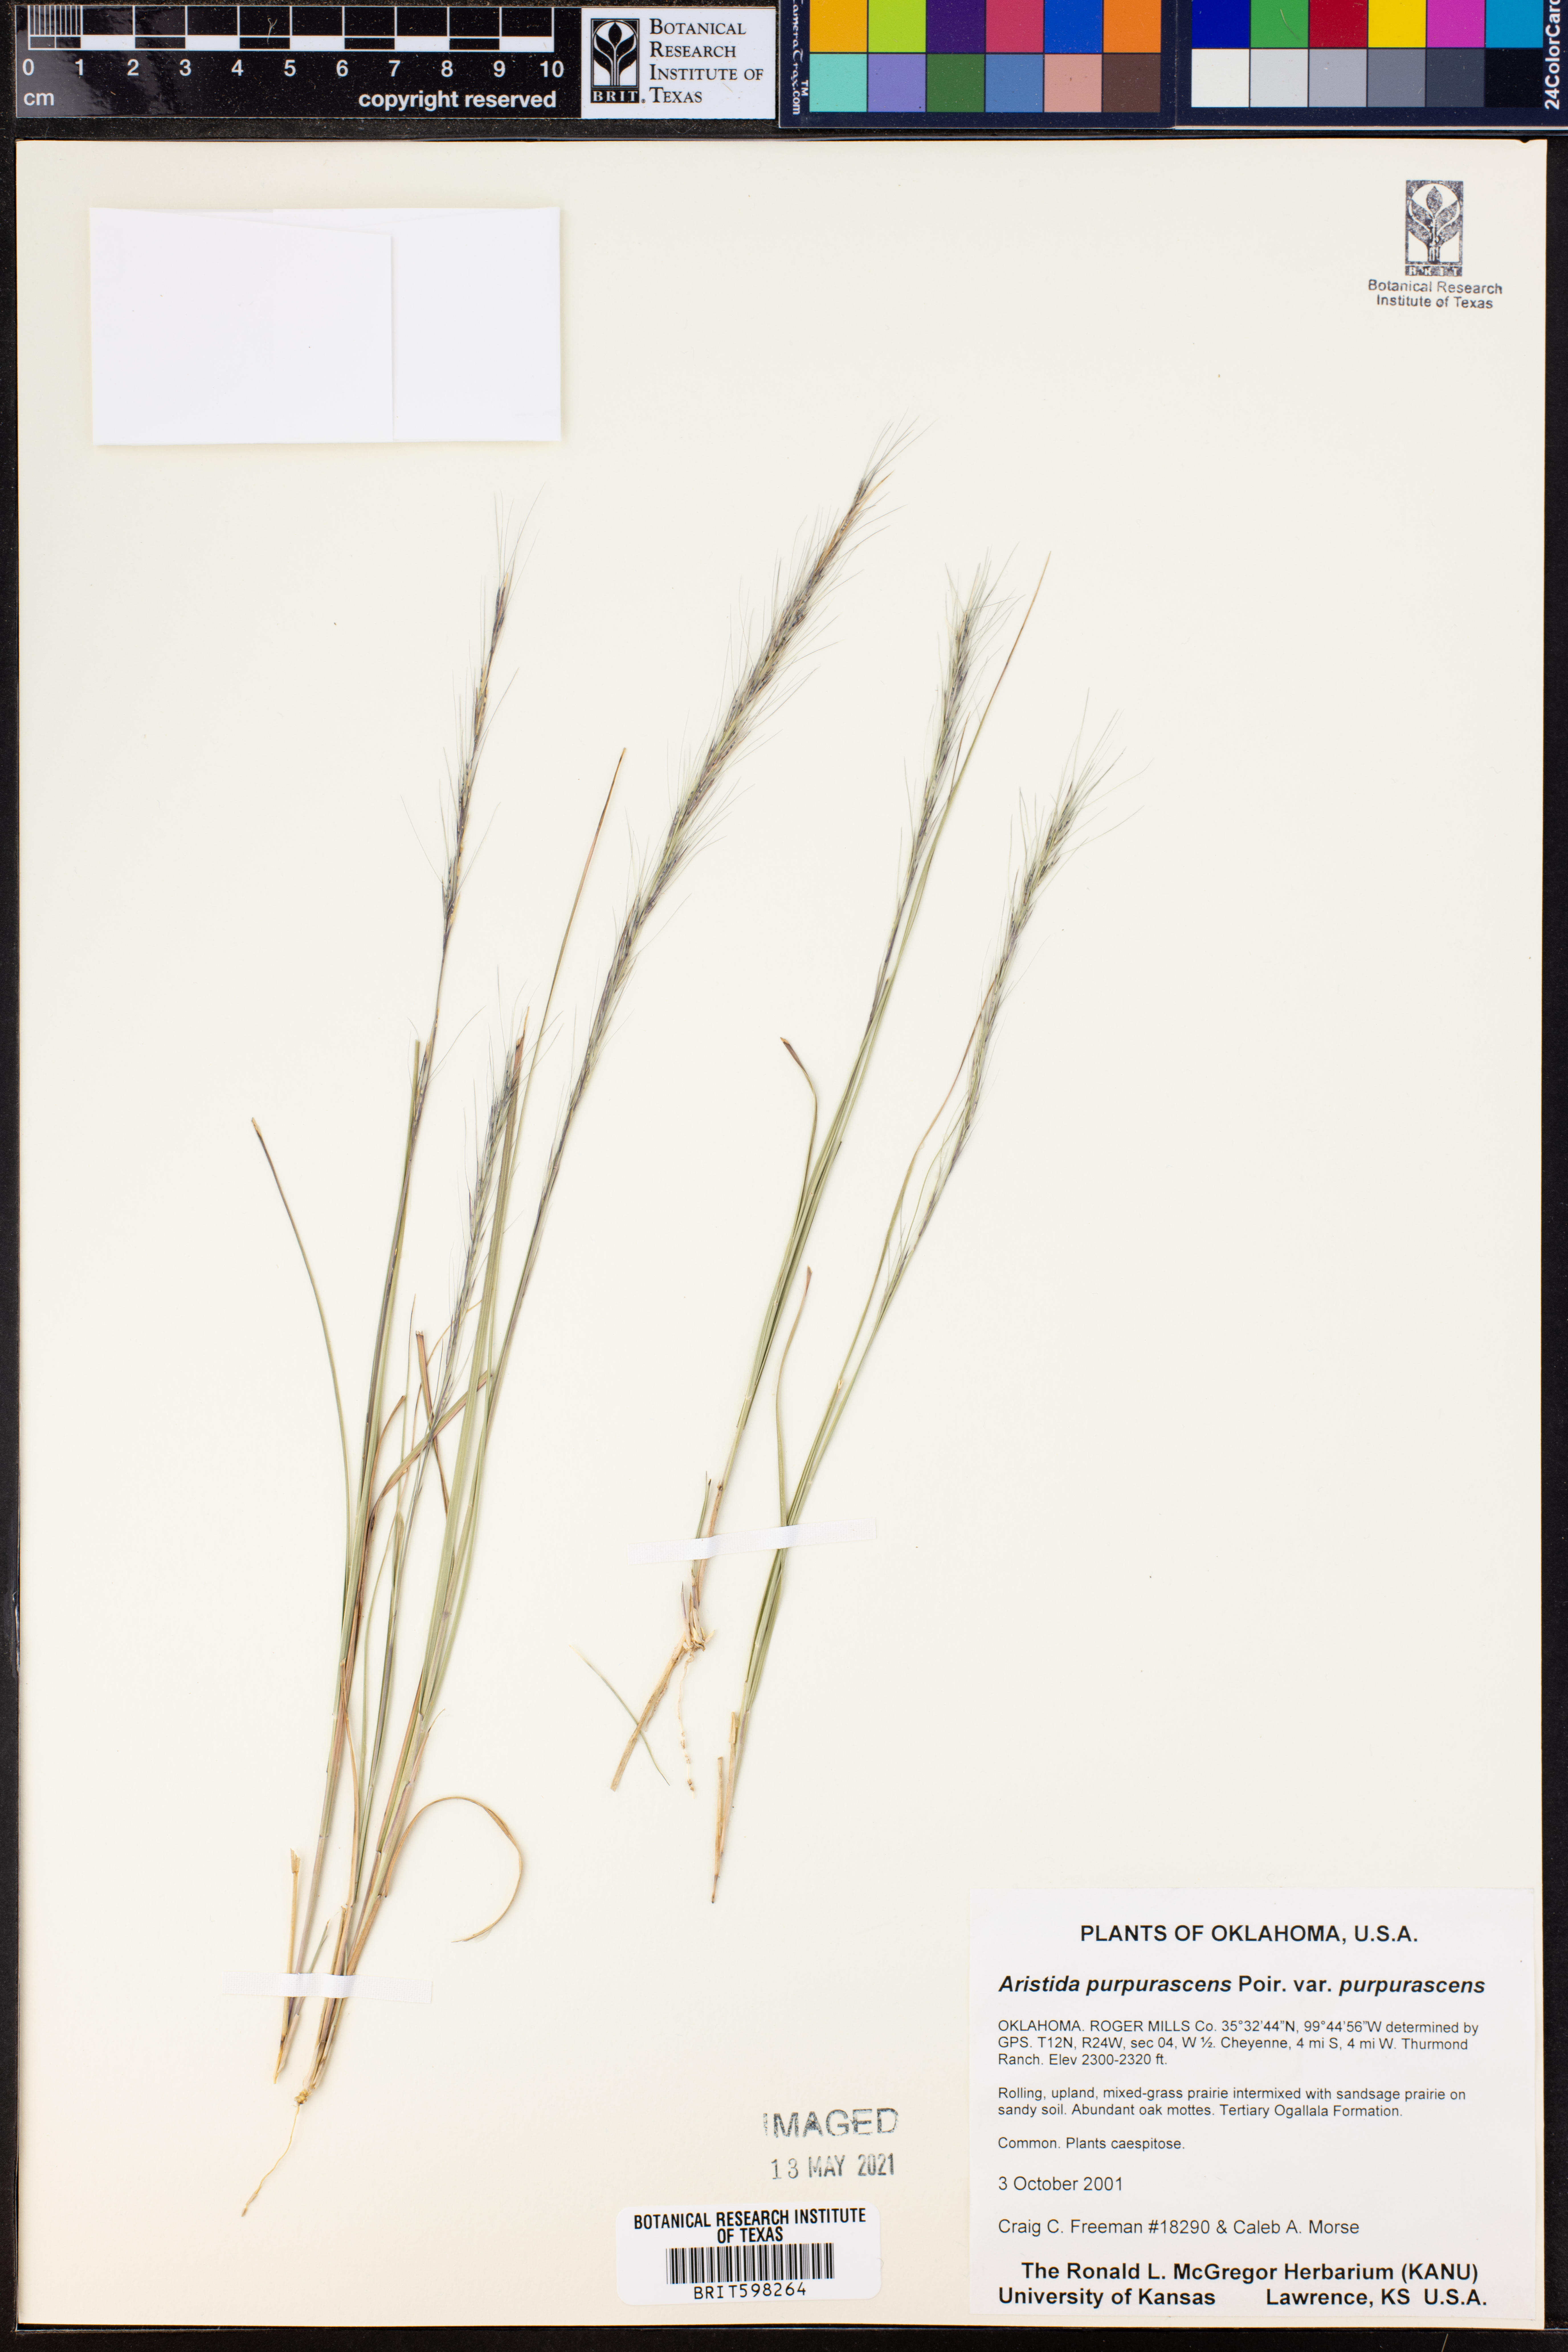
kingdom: Plantae
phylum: Tracheophyta
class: Liliopsida
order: Poales
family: Poaceae
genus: Aristida
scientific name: Aristida purpurascens
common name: Arrow-feather
